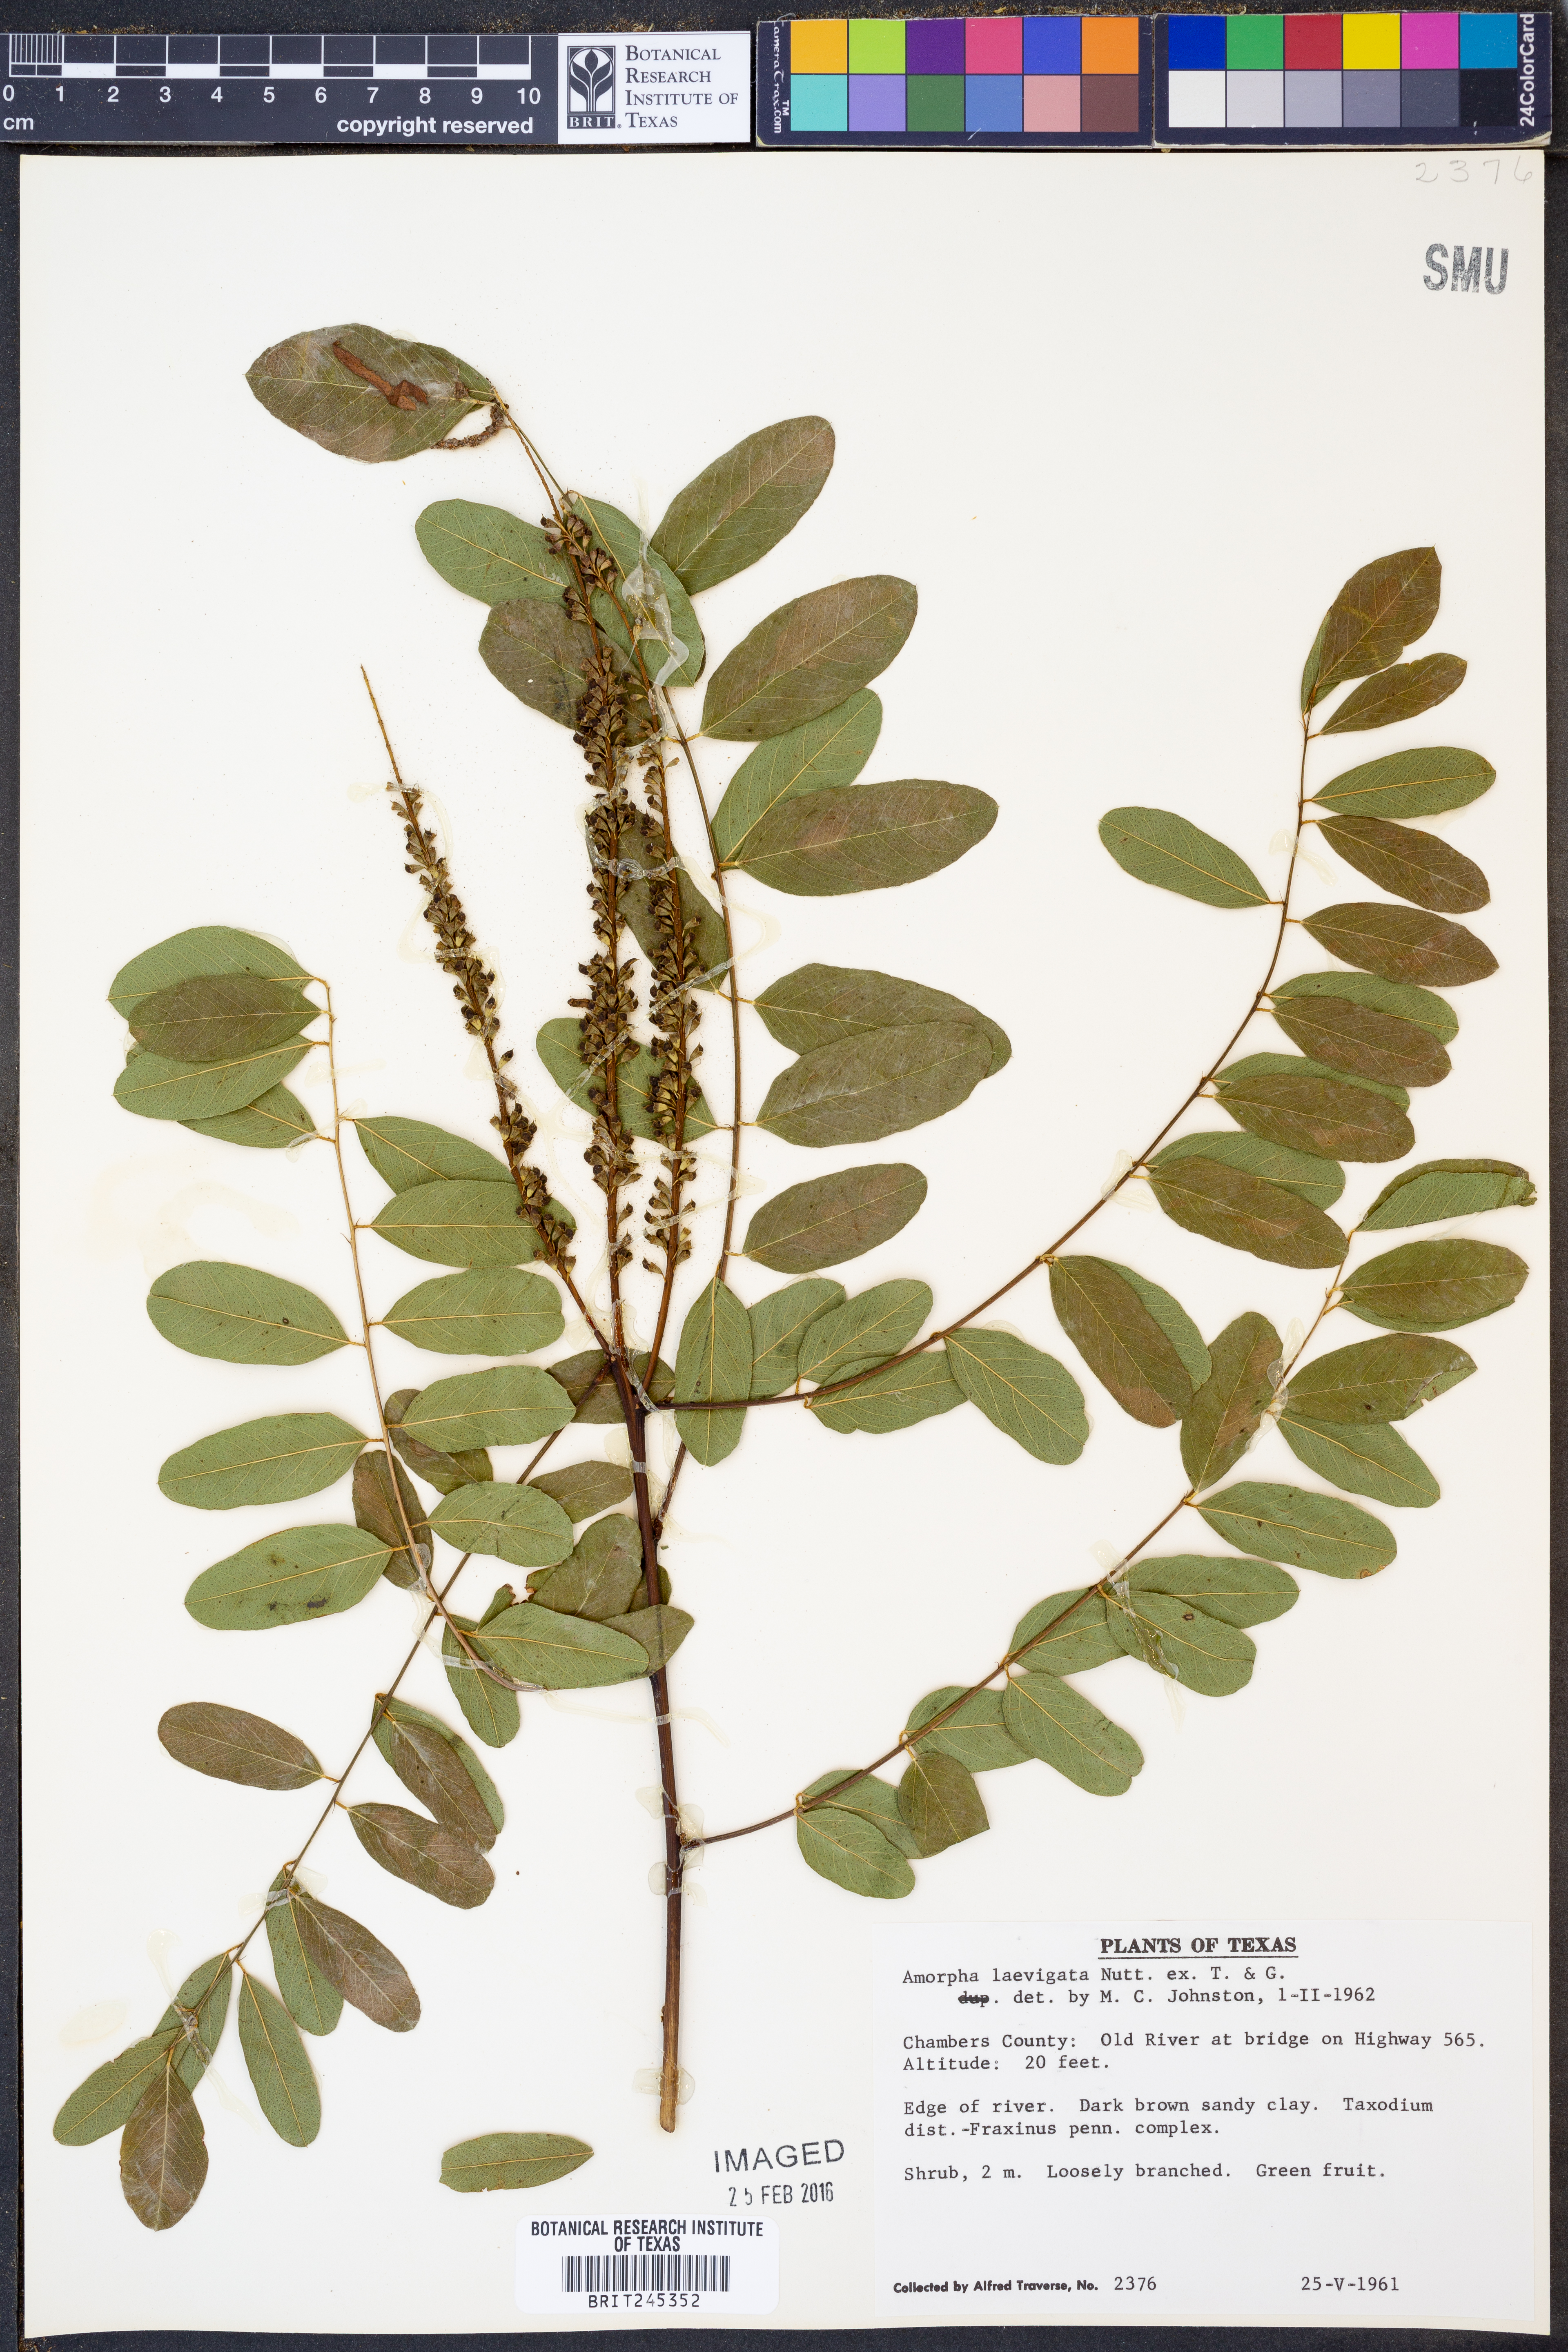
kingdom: Plantae
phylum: Tracheophyta
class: Magnoliopsida
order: Fabales
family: Fabaceae
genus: Amorpha
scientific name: Amorpha laevigata
